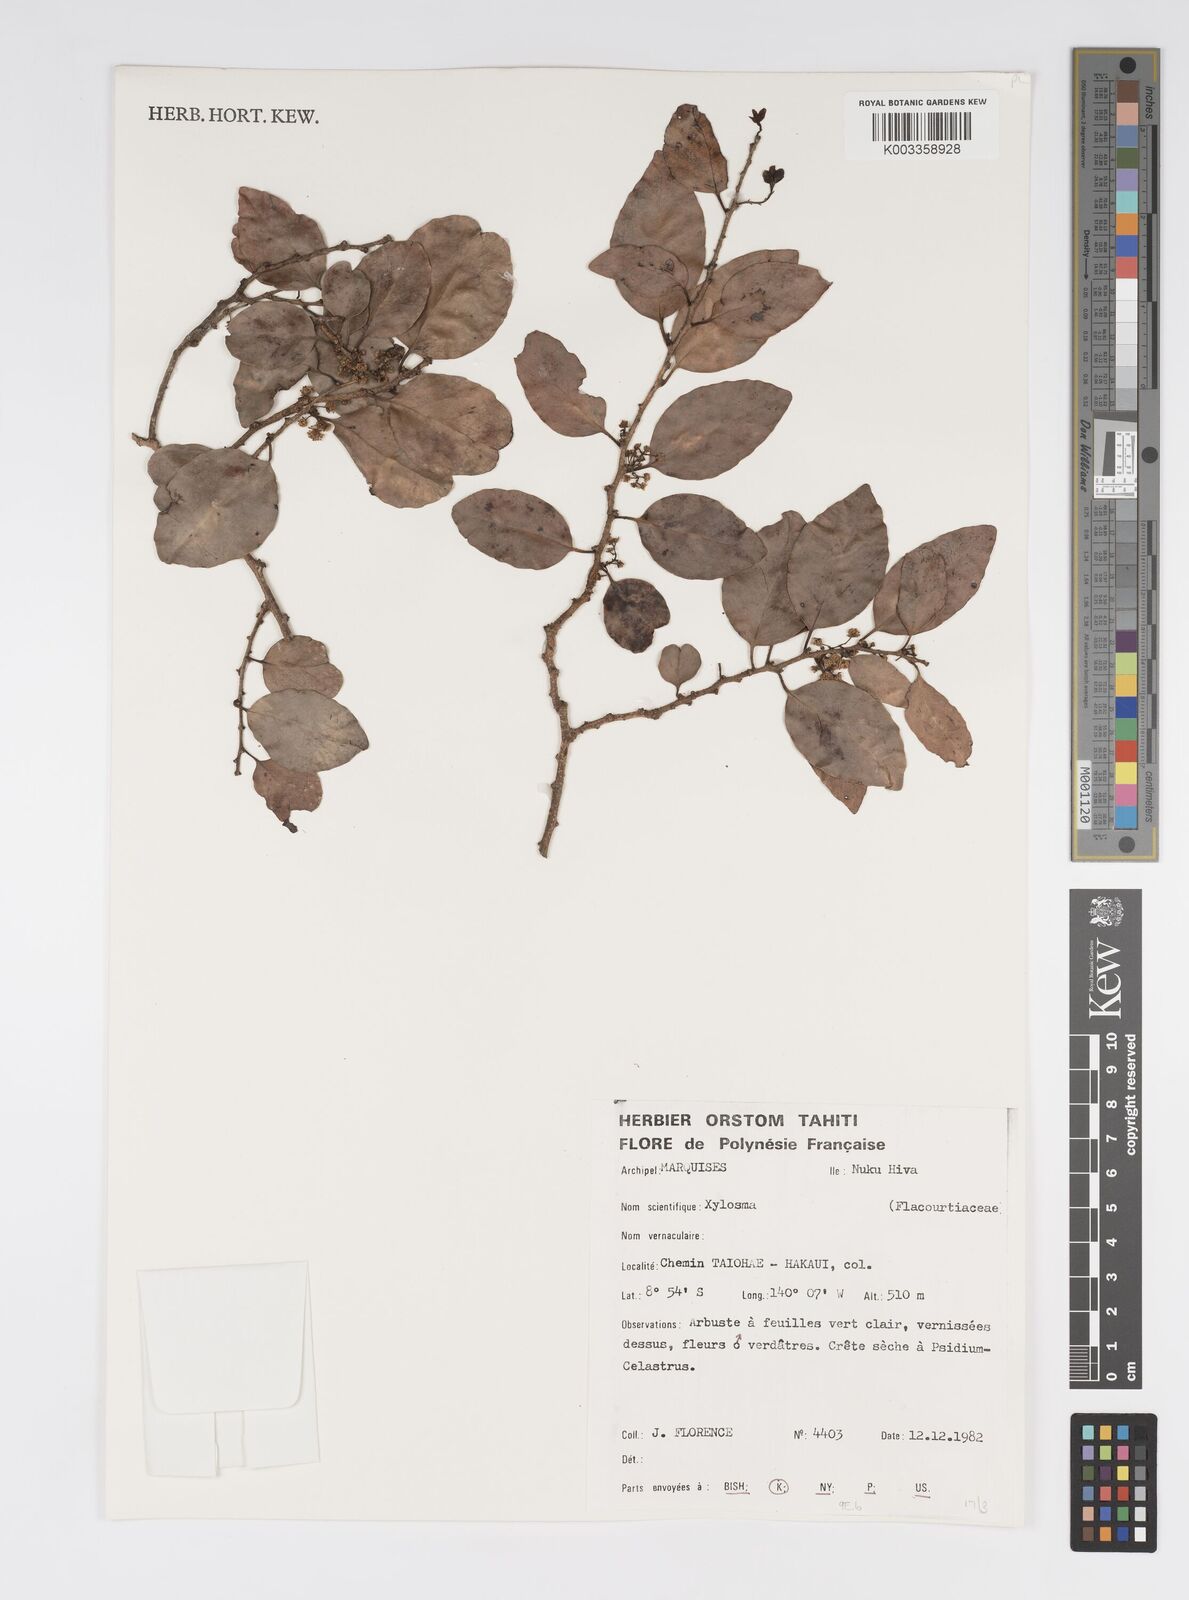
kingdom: Plantae
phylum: Tracheophyta
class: Magnoliopsida
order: Malpighiales
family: Salicaceae
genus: Xylosma
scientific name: Xylosma
